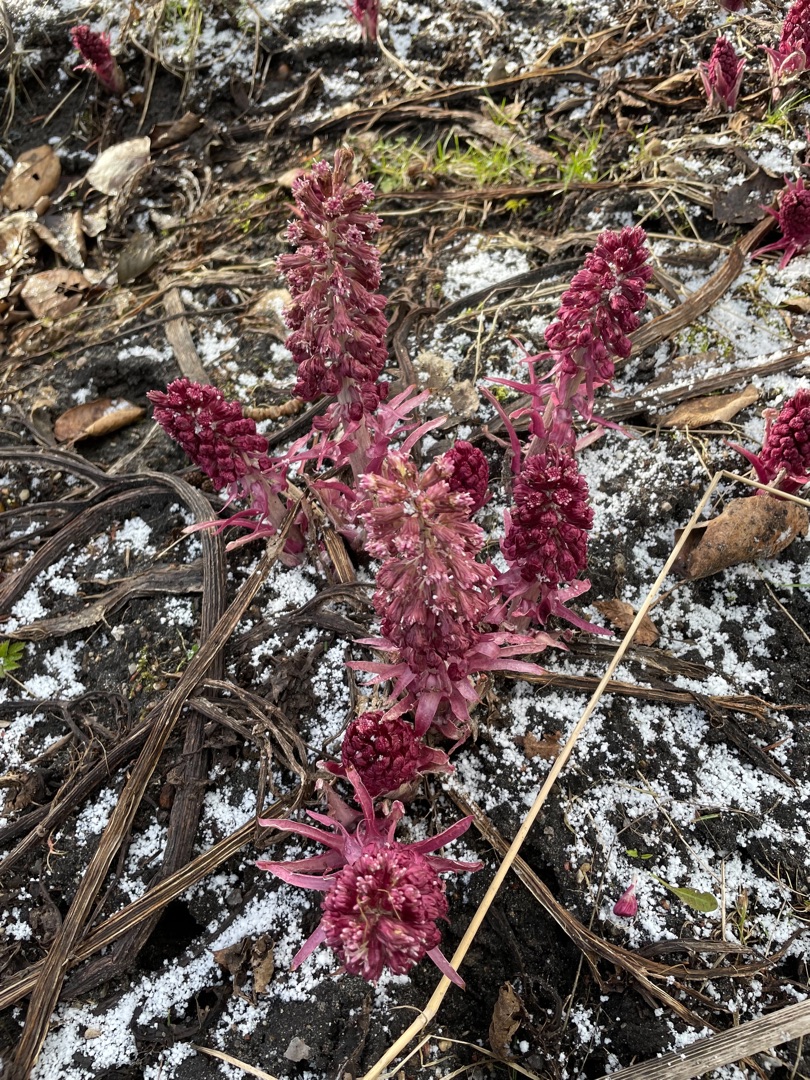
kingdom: Plantae
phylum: Tracheophyta
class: Magnoliopsida
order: Asterales
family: Asteraceae
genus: Petasites
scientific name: Petasites hybridus
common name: Rød hestehov
